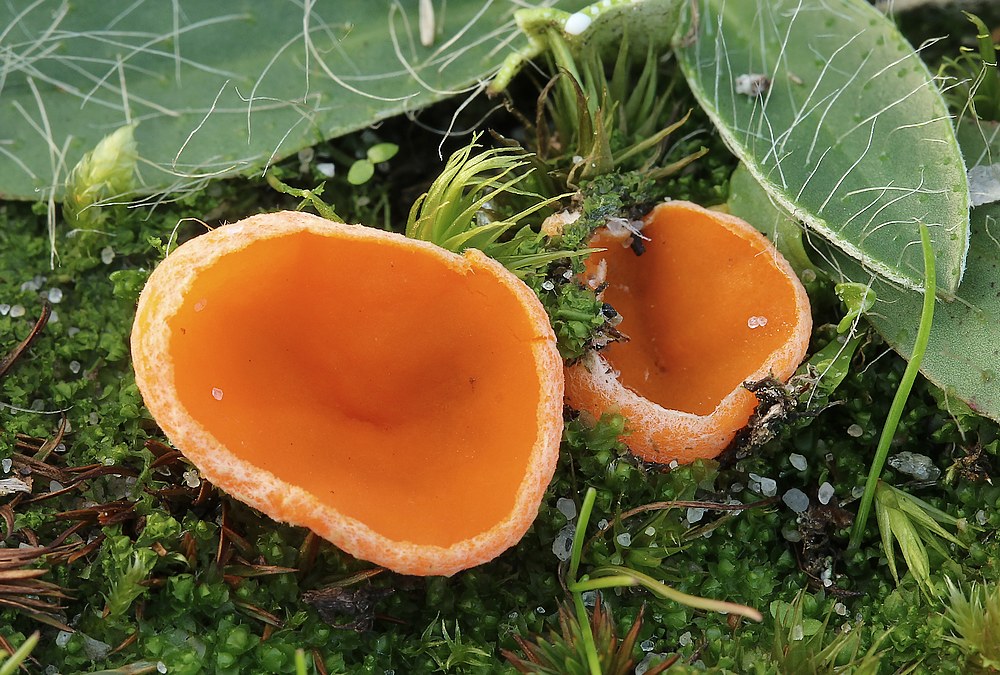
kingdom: Fungi
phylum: Ascomycota
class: Pezizomycetes
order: Pezizales
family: Pyronemataceae
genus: Neottiella
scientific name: Neottiella
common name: mosbæger
